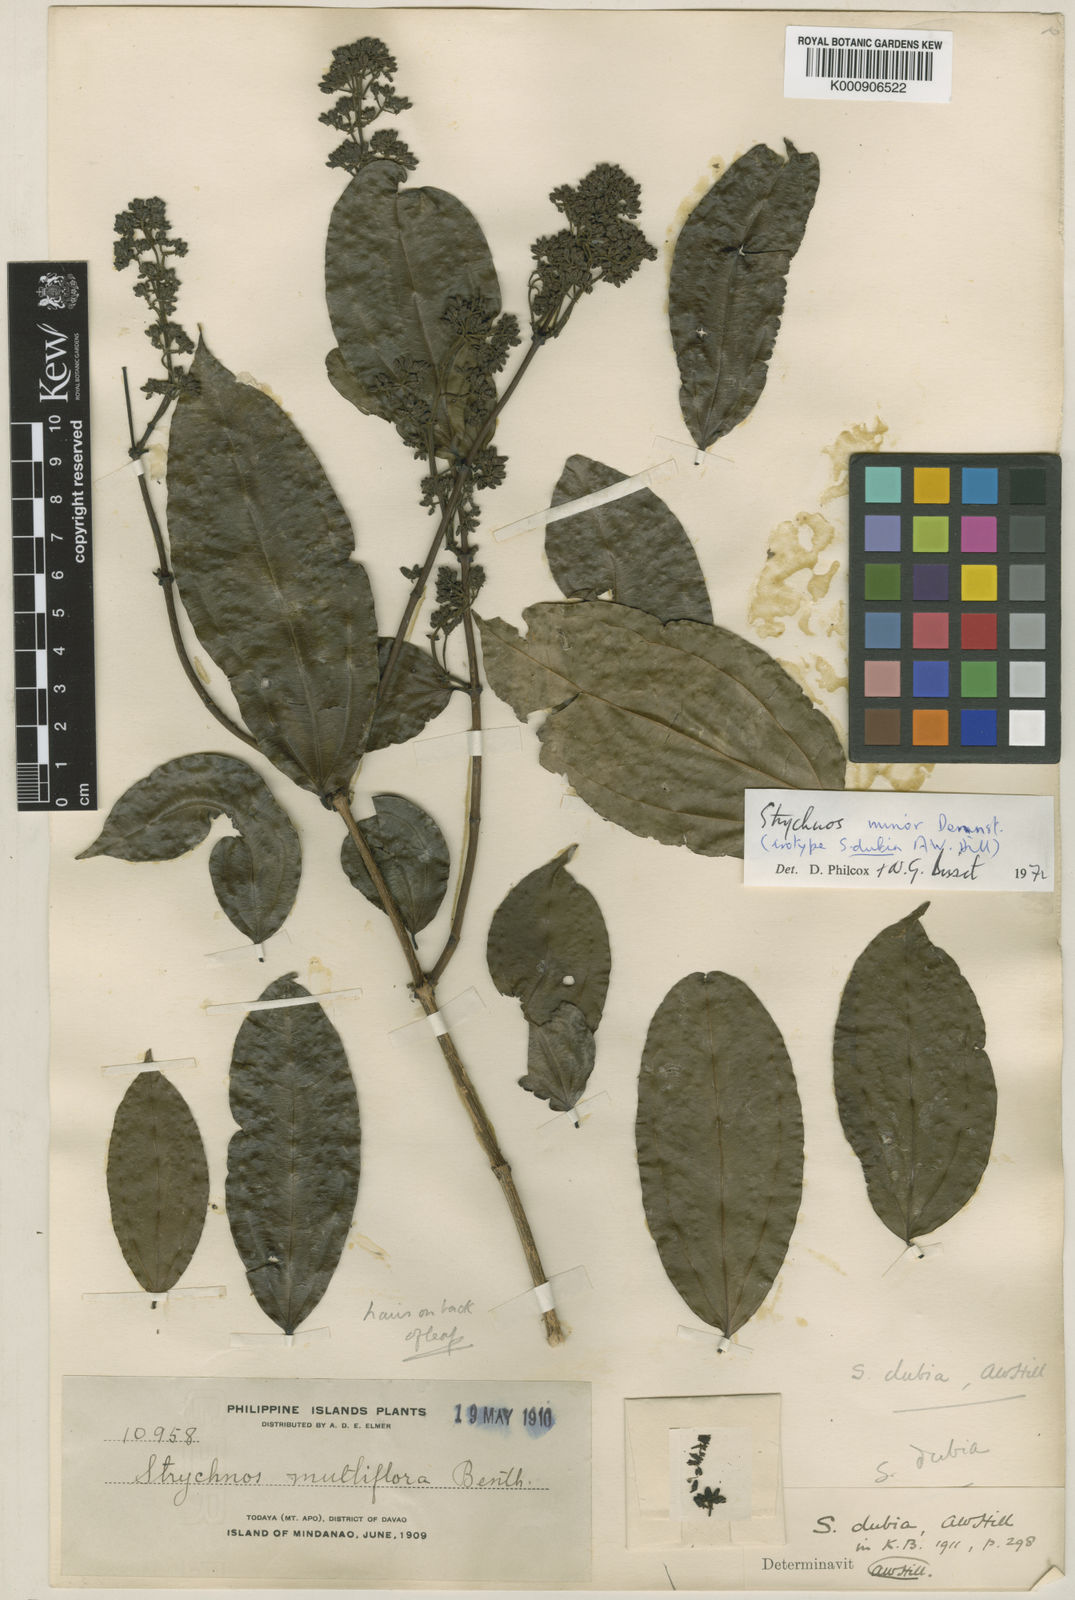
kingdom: Plantae
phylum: Tracheophyta
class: Magnoliopsida
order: Gentianales
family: Loganiaceae
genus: Strychnos
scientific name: Strychnos minor
